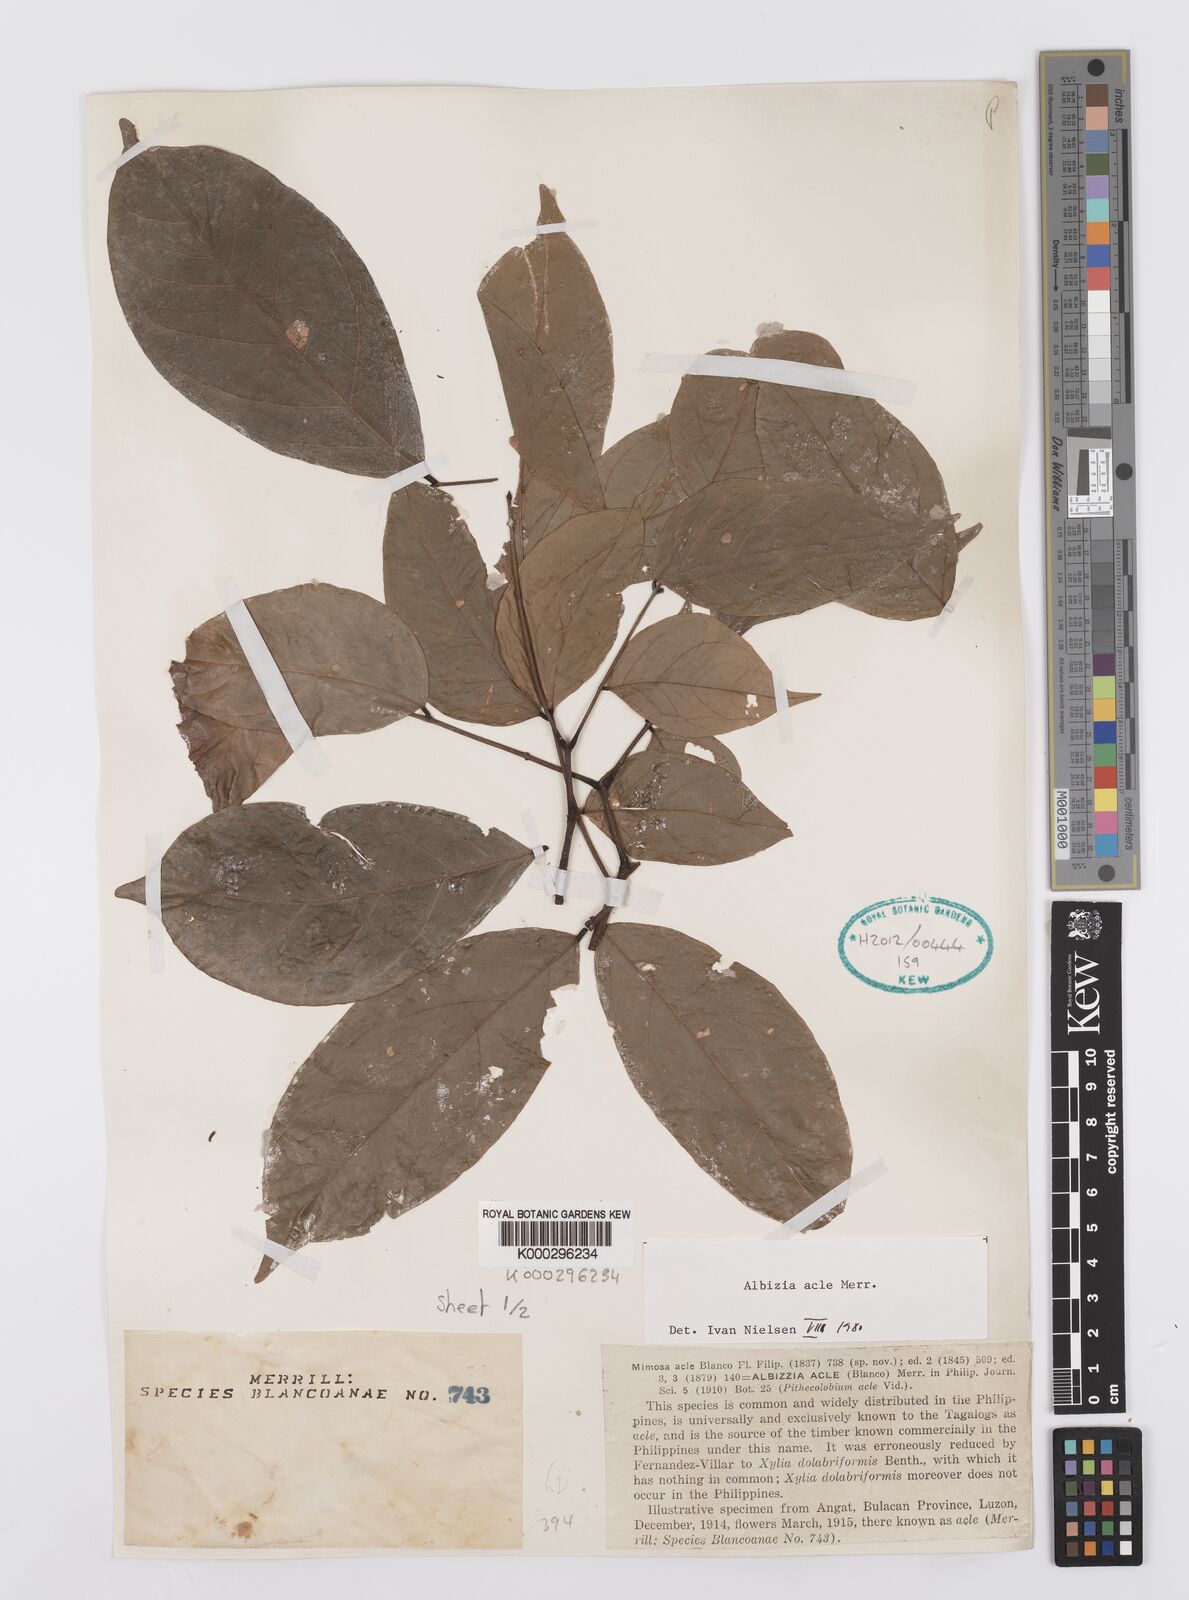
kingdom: Plantae
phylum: Tracheophyta
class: Magnoliopsida
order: Fabales
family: Fabaceae
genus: Albizia
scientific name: Albizia acle
